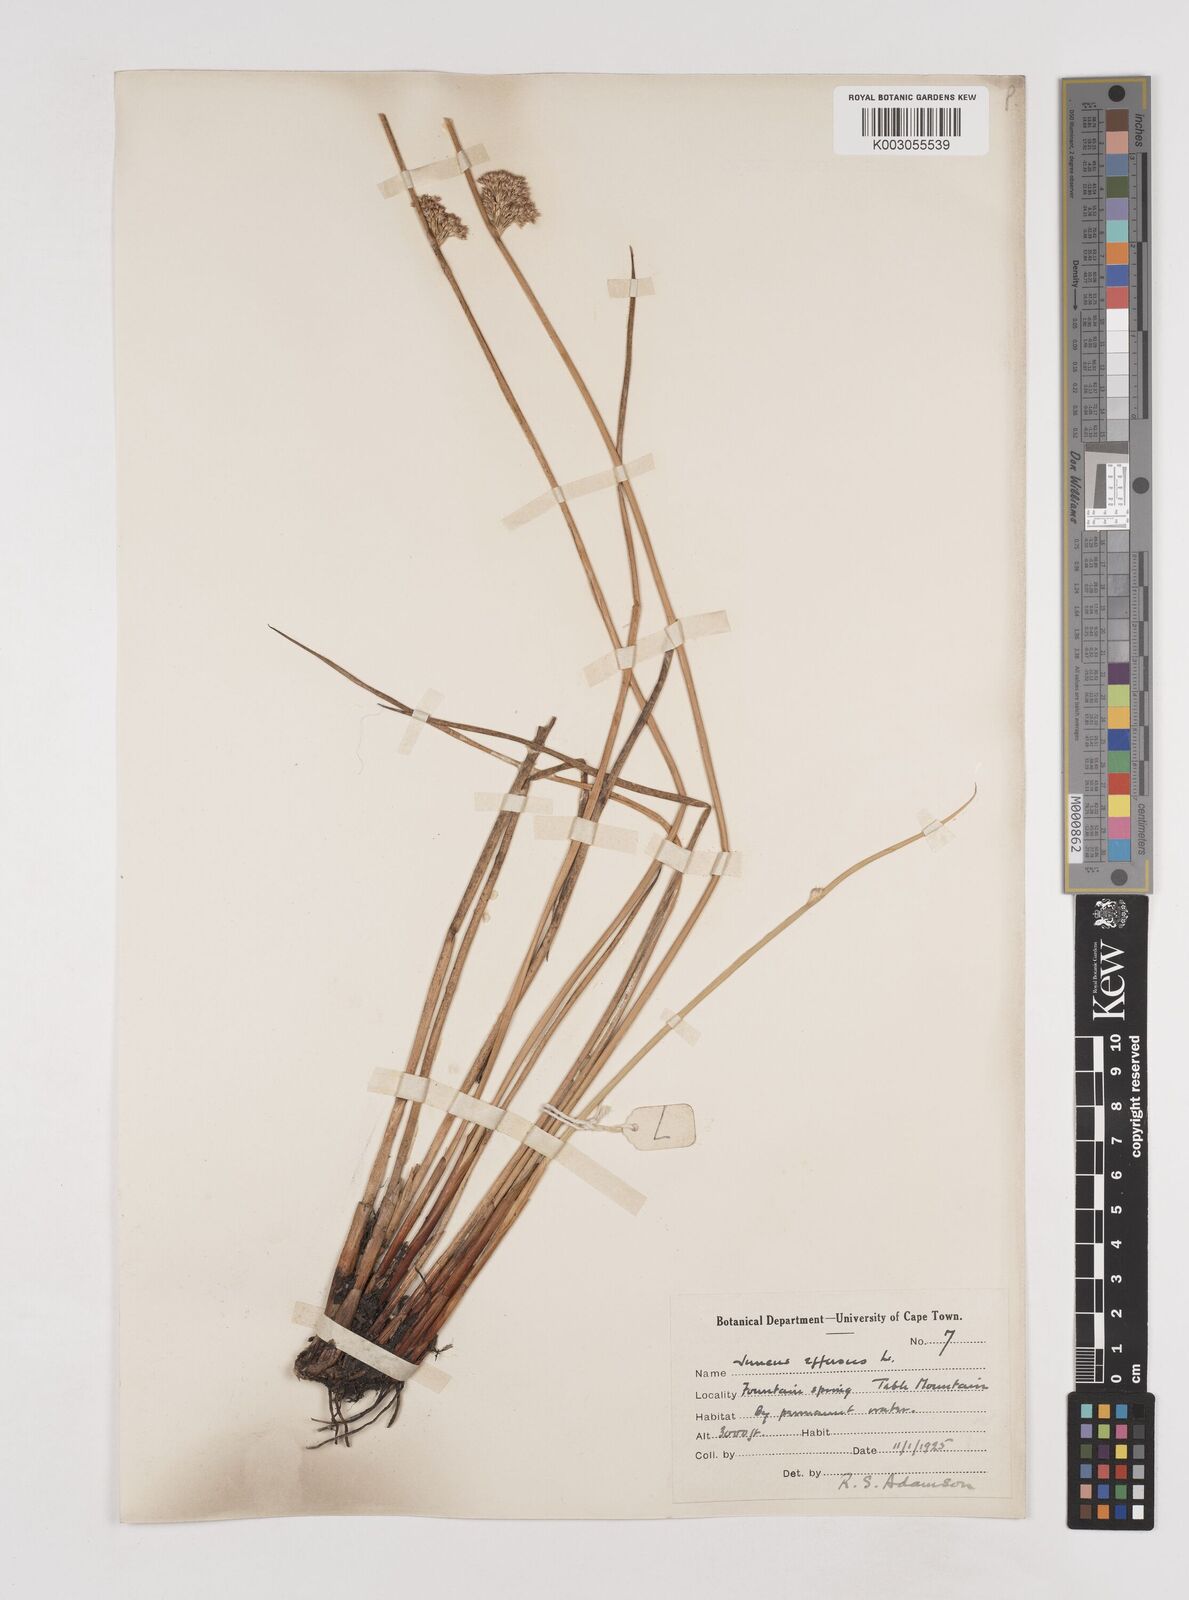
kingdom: Plantae
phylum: Tracheophyta
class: Liliopsida
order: Poales
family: Juncaceae
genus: Juncus
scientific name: Juncus effusus
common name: Soft rush
